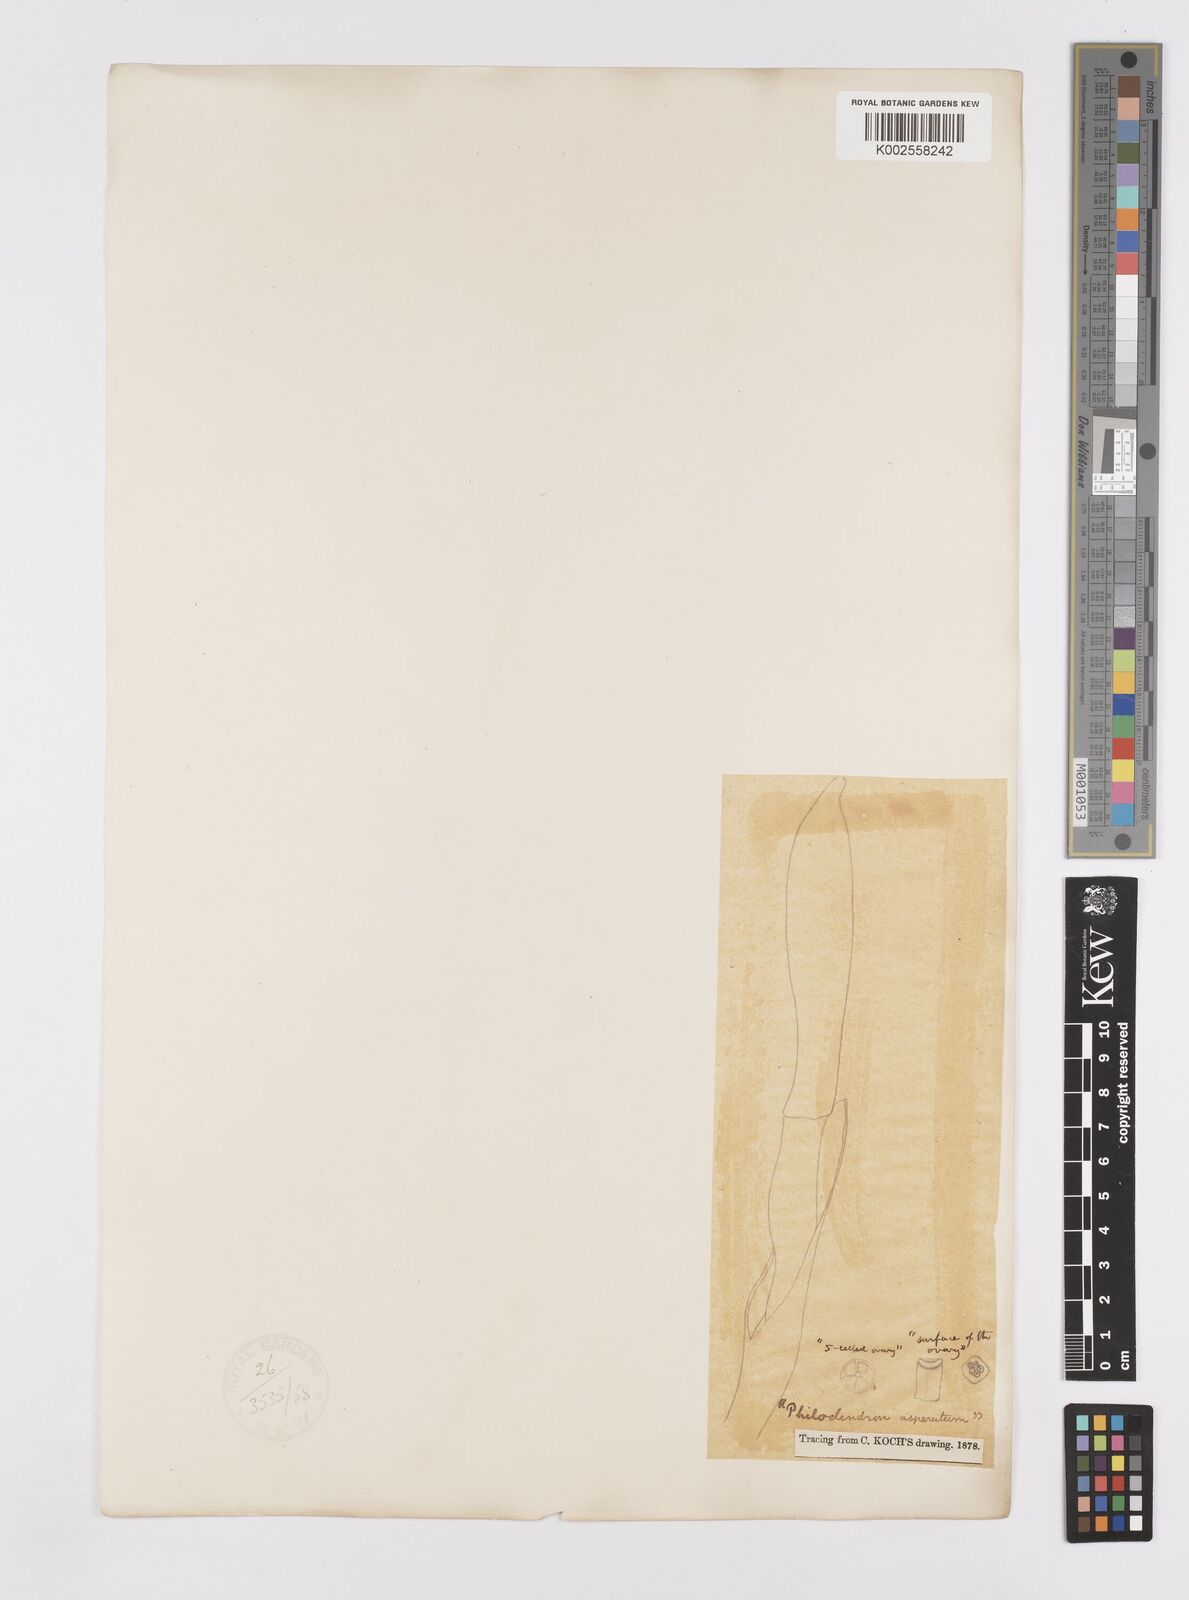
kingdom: Plantae
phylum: Tracheophyta
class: Liliopsida
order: Alismatales
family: Araceae
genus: Philodendron
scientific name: Philodendron ornatum
